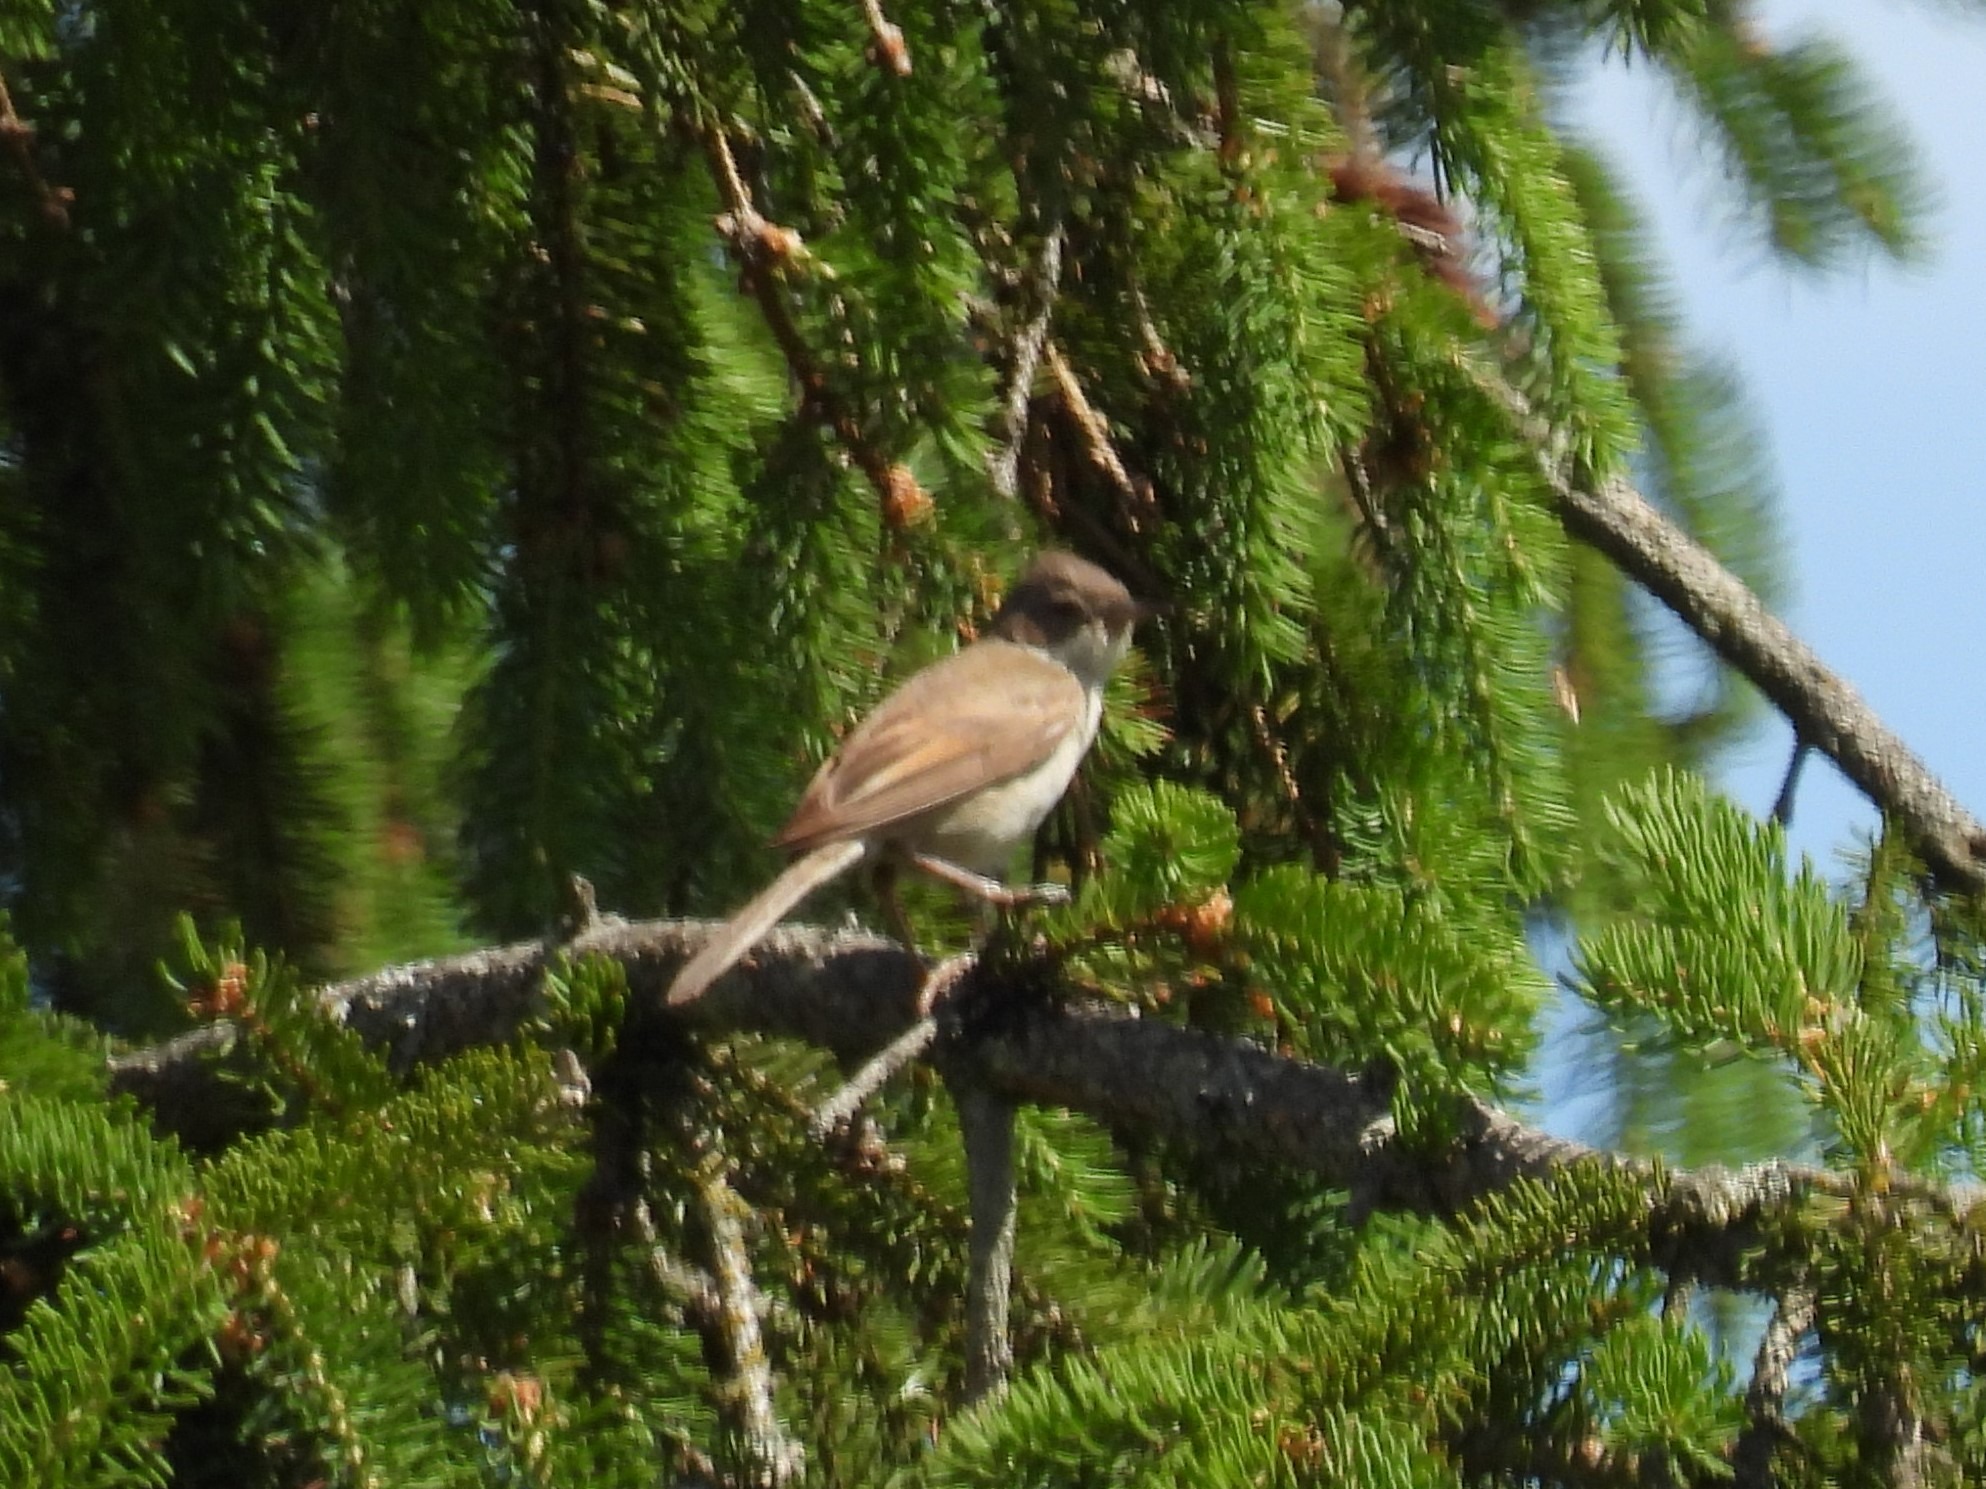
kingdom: Animalia
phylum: Chordata
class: Aves
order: Passeriformes
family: Sylviidae
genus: Sylvia
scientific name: Sylvia communis
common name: Tornsanger
